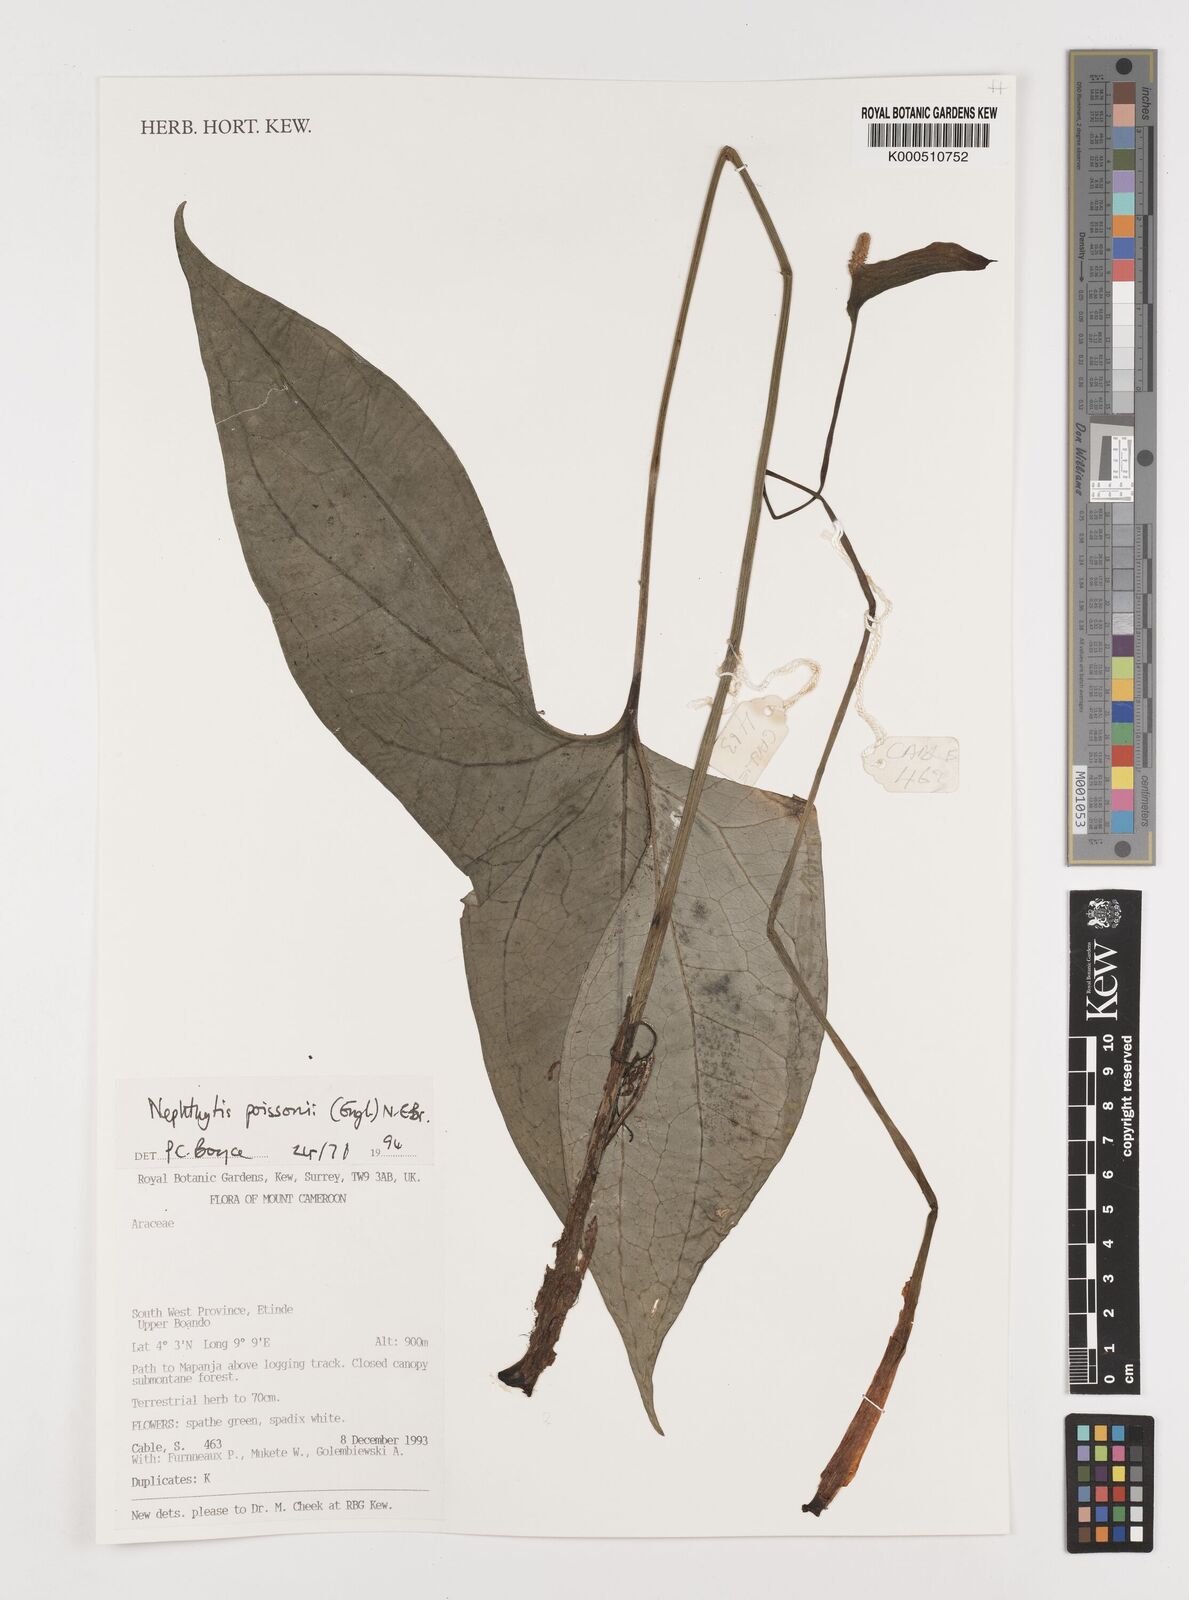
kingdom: Plantae
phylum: Tracheophyta
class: Liliopsida
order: Alismatales
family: Araceae
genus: Nephthytis
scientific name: Nephthytis poissonii
